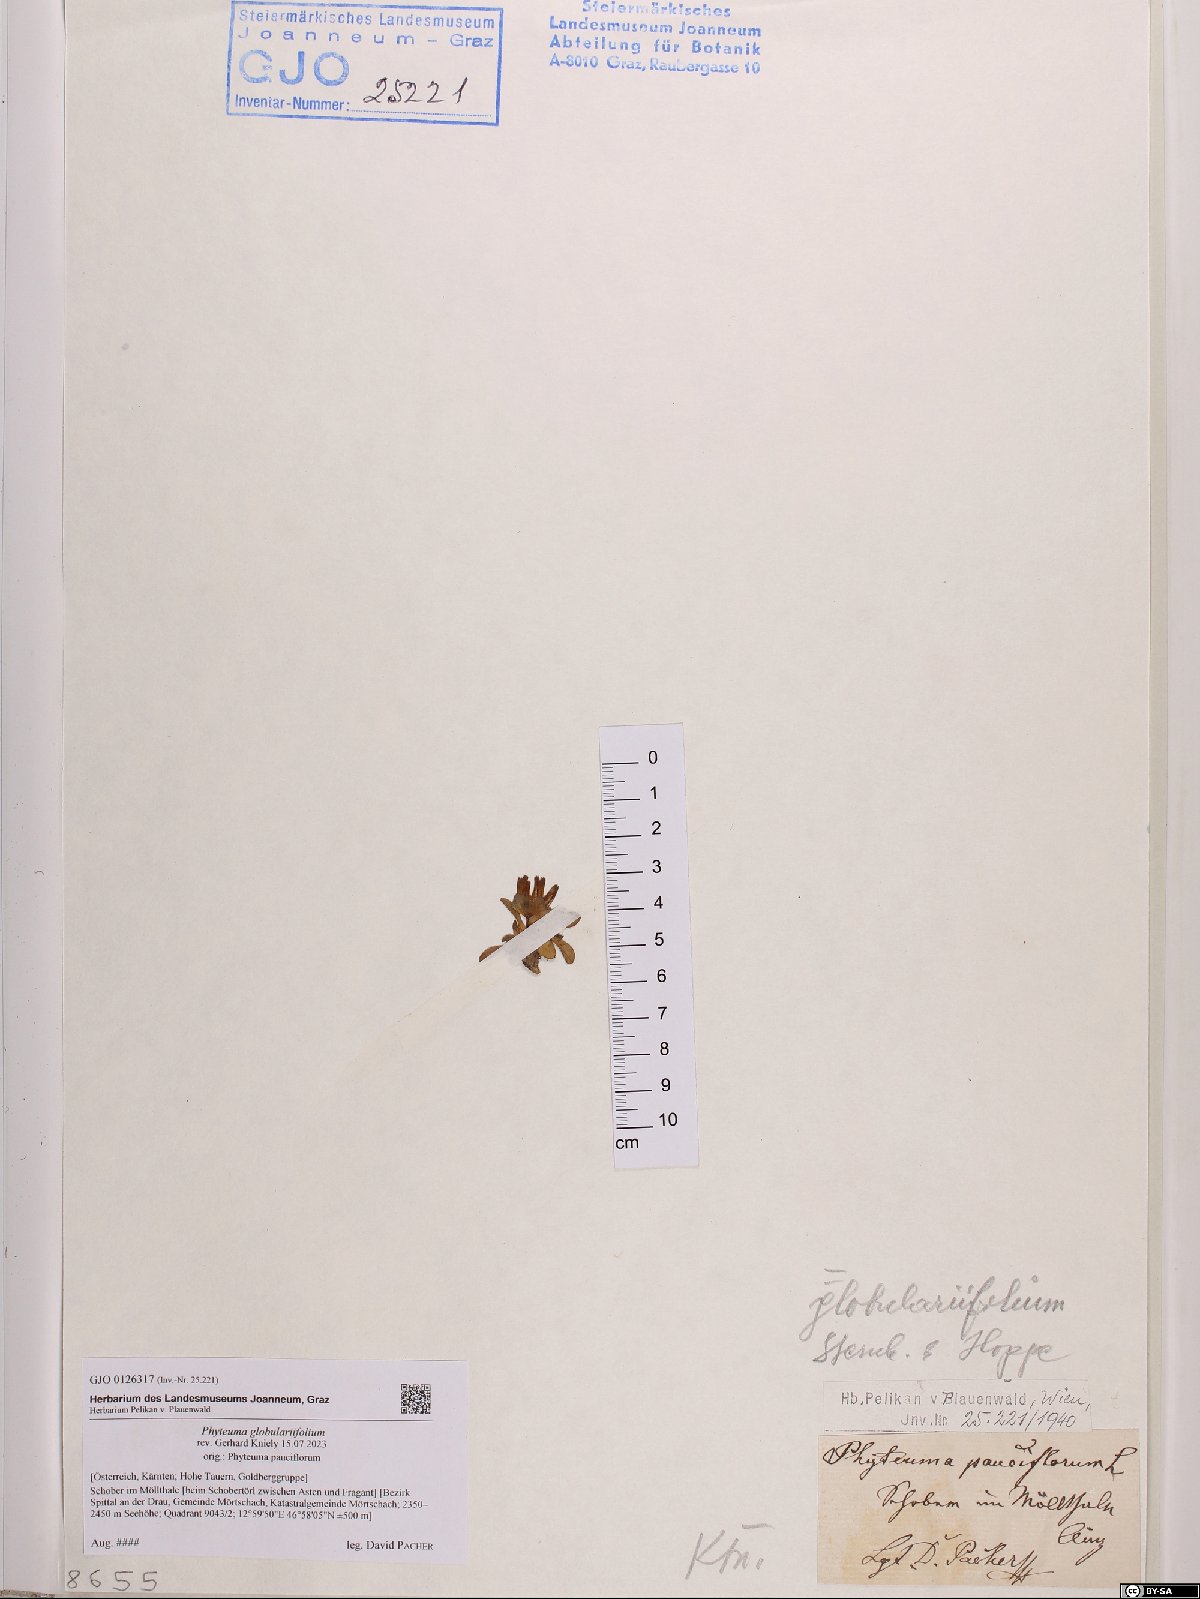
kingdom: Plantae
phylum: Tracheophyta
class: Magnoliopsida
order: Asterales
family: Campanulaceae
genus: Phyteuma
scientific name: Phyteuma globulariifolium
